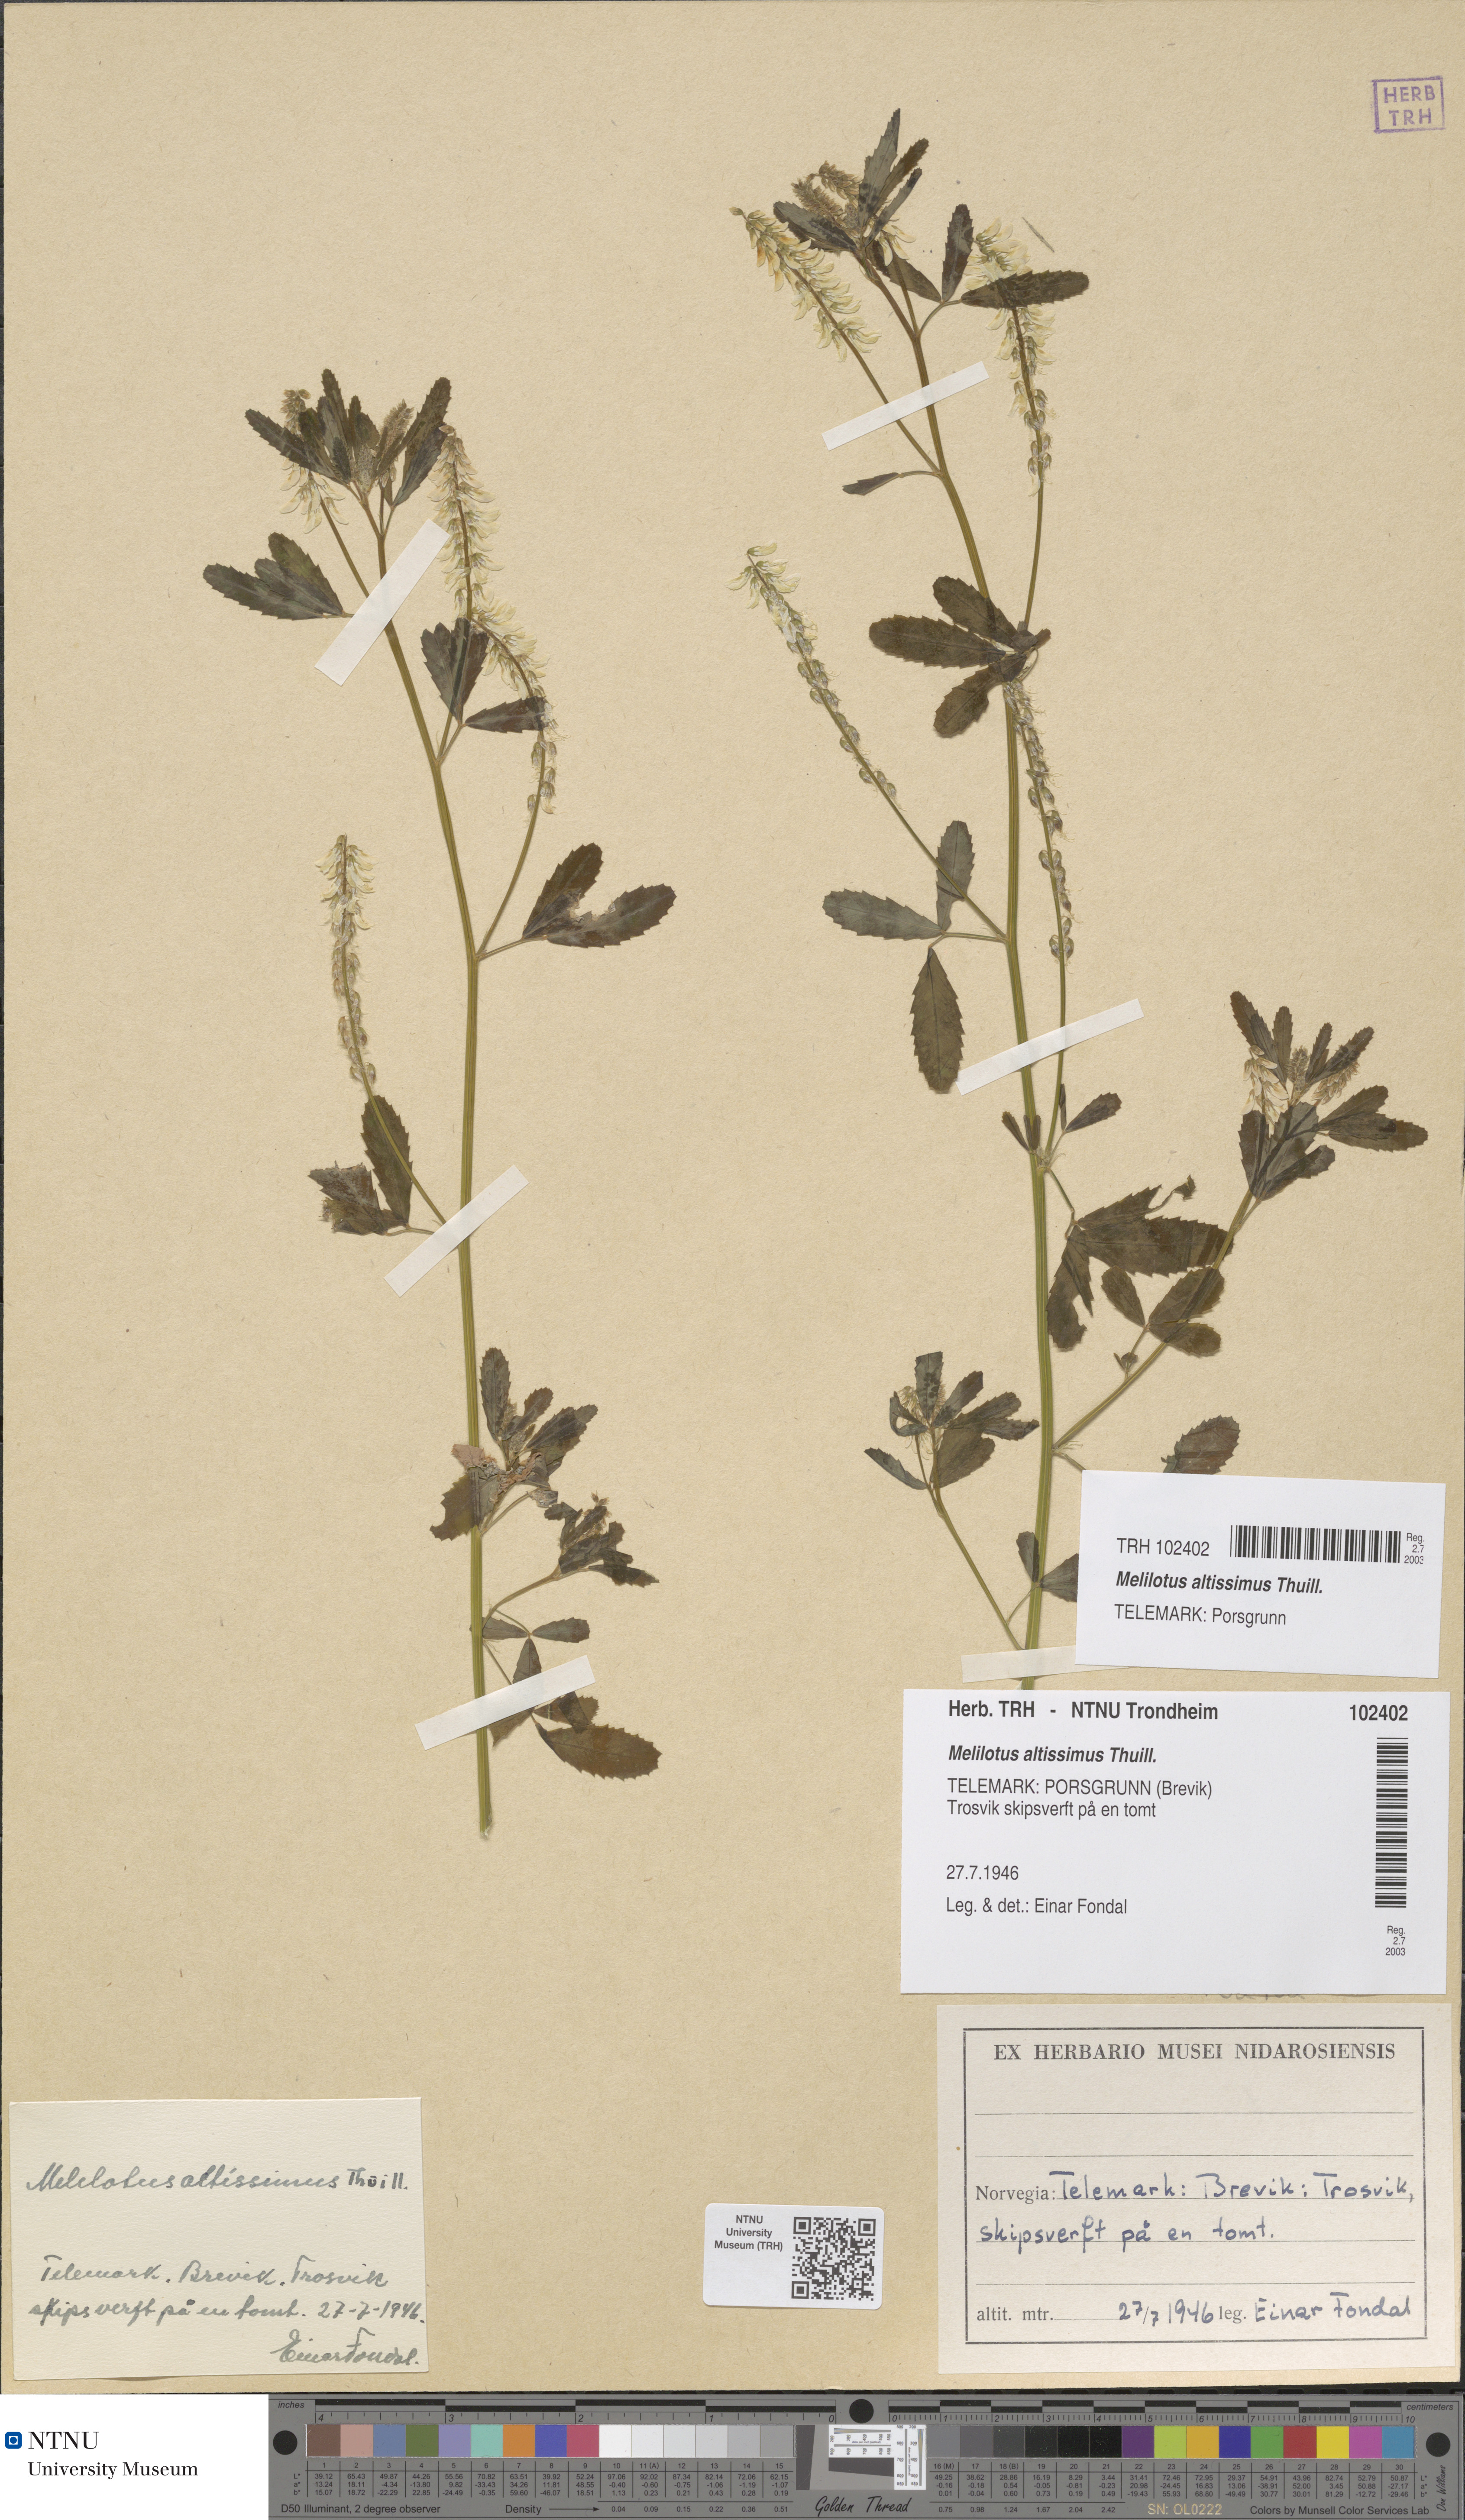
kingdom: Plantae
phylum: Tracheophyta
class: Magnoliopsida
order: Fabales
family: Fabaceae
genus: Melilotus
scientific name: Melilotus altissimus
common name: Tall melilot
